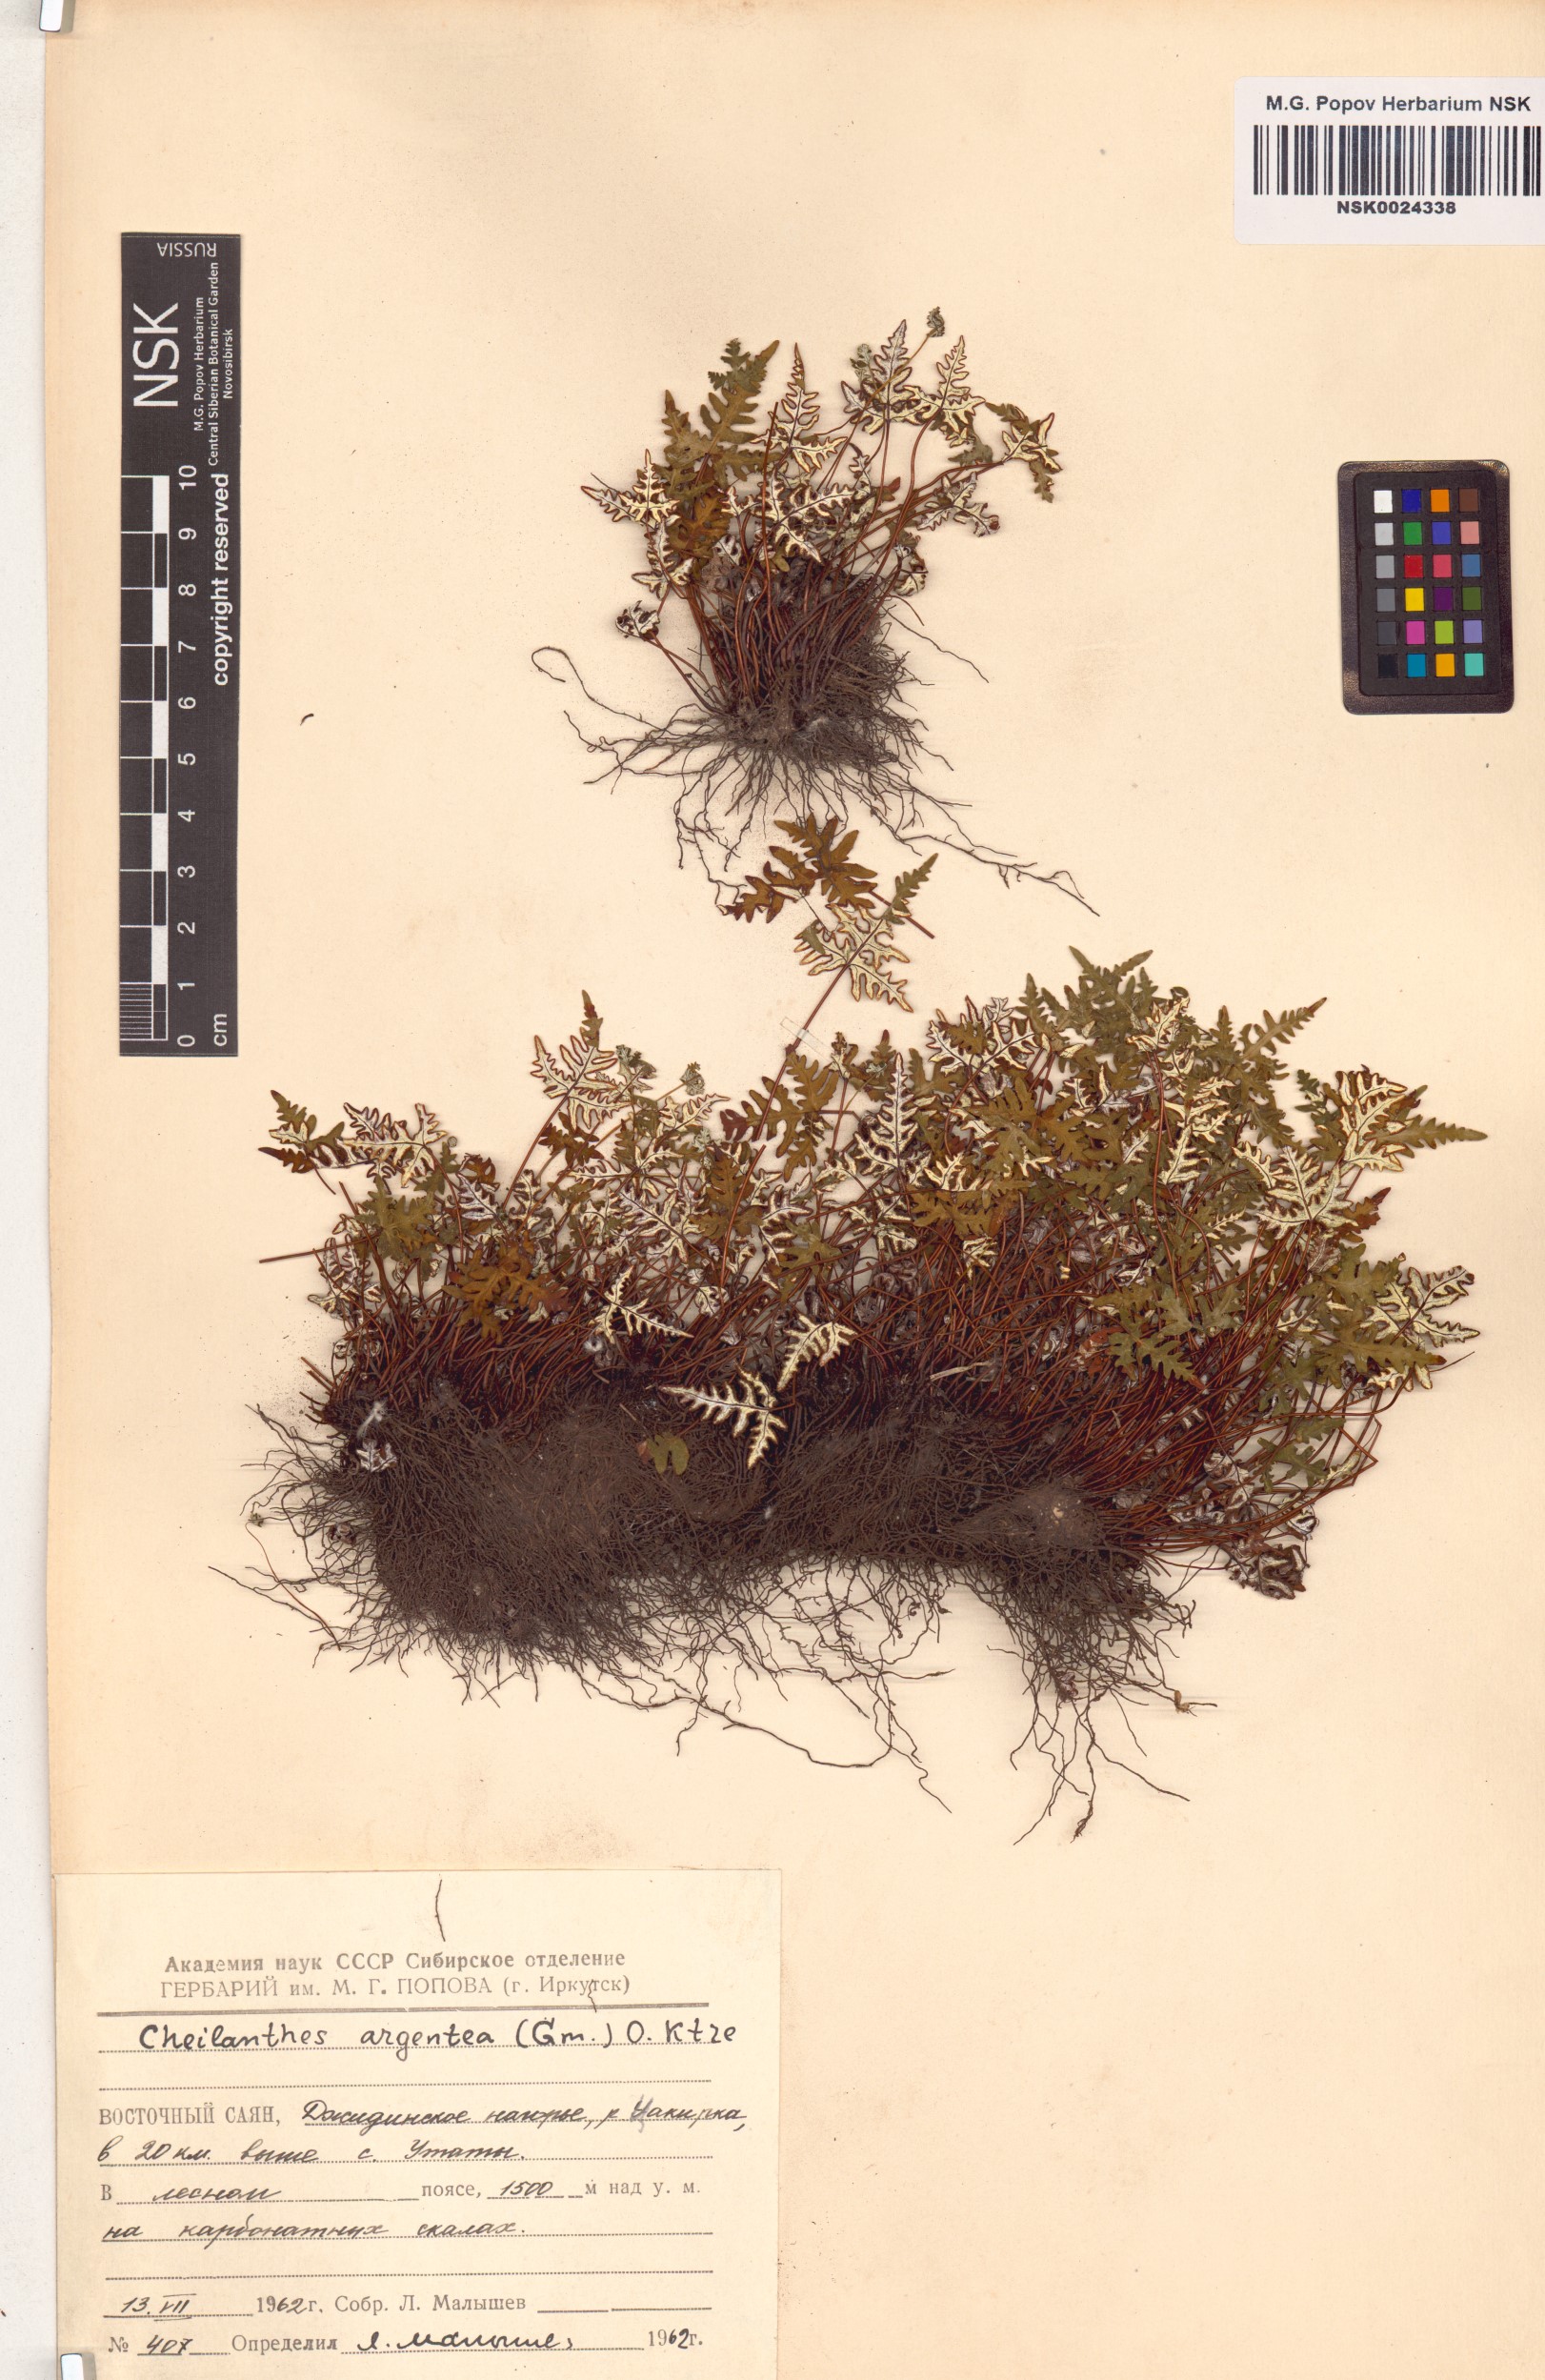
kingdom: Plantae
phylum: Tracheophyta
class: Polypodiopsida
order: Polypodiales
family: Pteridaceae
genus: Aleuritopteris
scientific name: Aleuritopteris argentea
